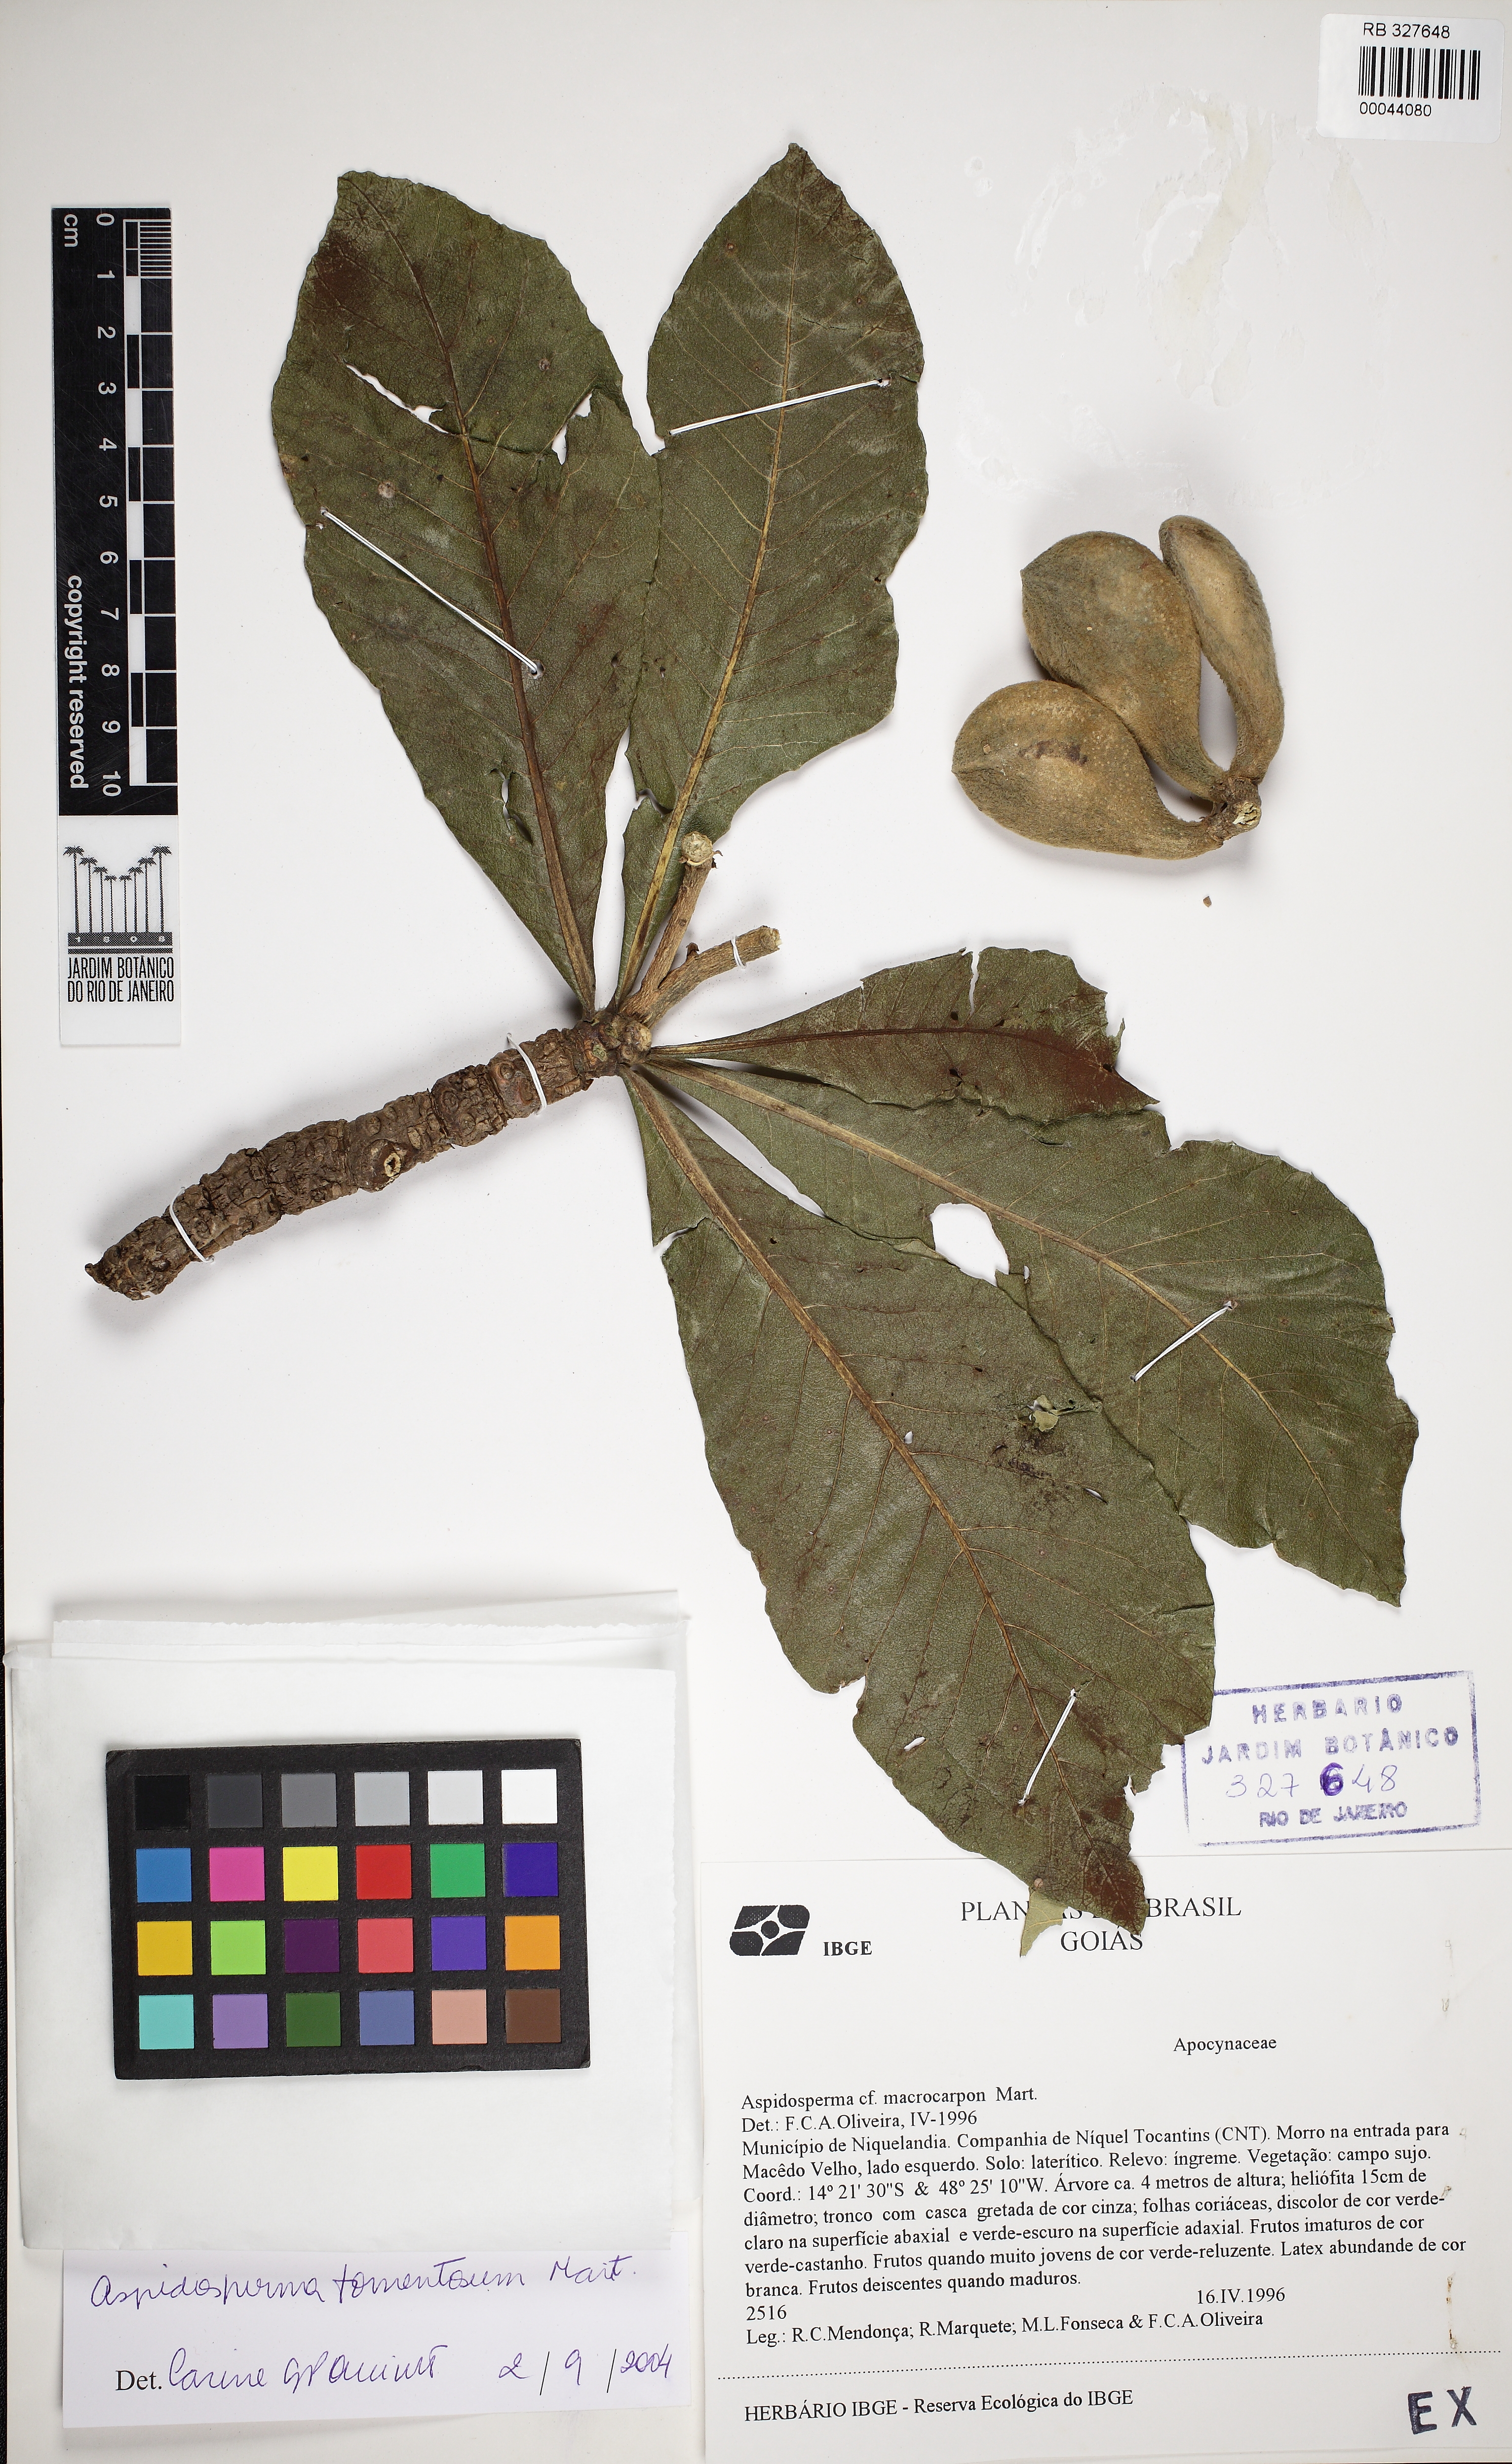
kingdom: Plantae
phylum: Tracheophyta
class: Magnoliopsida
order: Gentianales
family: Apocynaceae
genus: Aspidosperma
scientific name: Aspidosperma tomentosum
